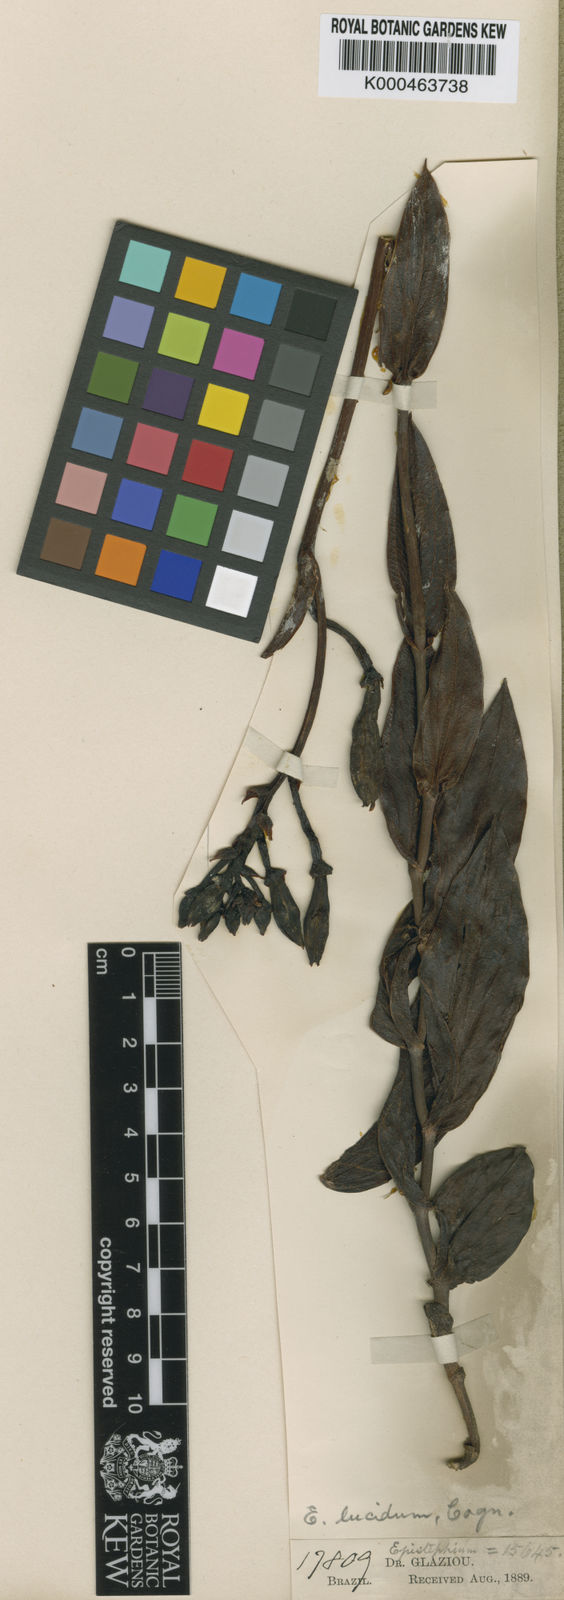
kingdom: Plantae
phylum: Tracheophyta
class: Liliopsida
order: Asparagales
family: Orchidaceae
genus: Epistephium
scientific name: Epistephium williamsii
